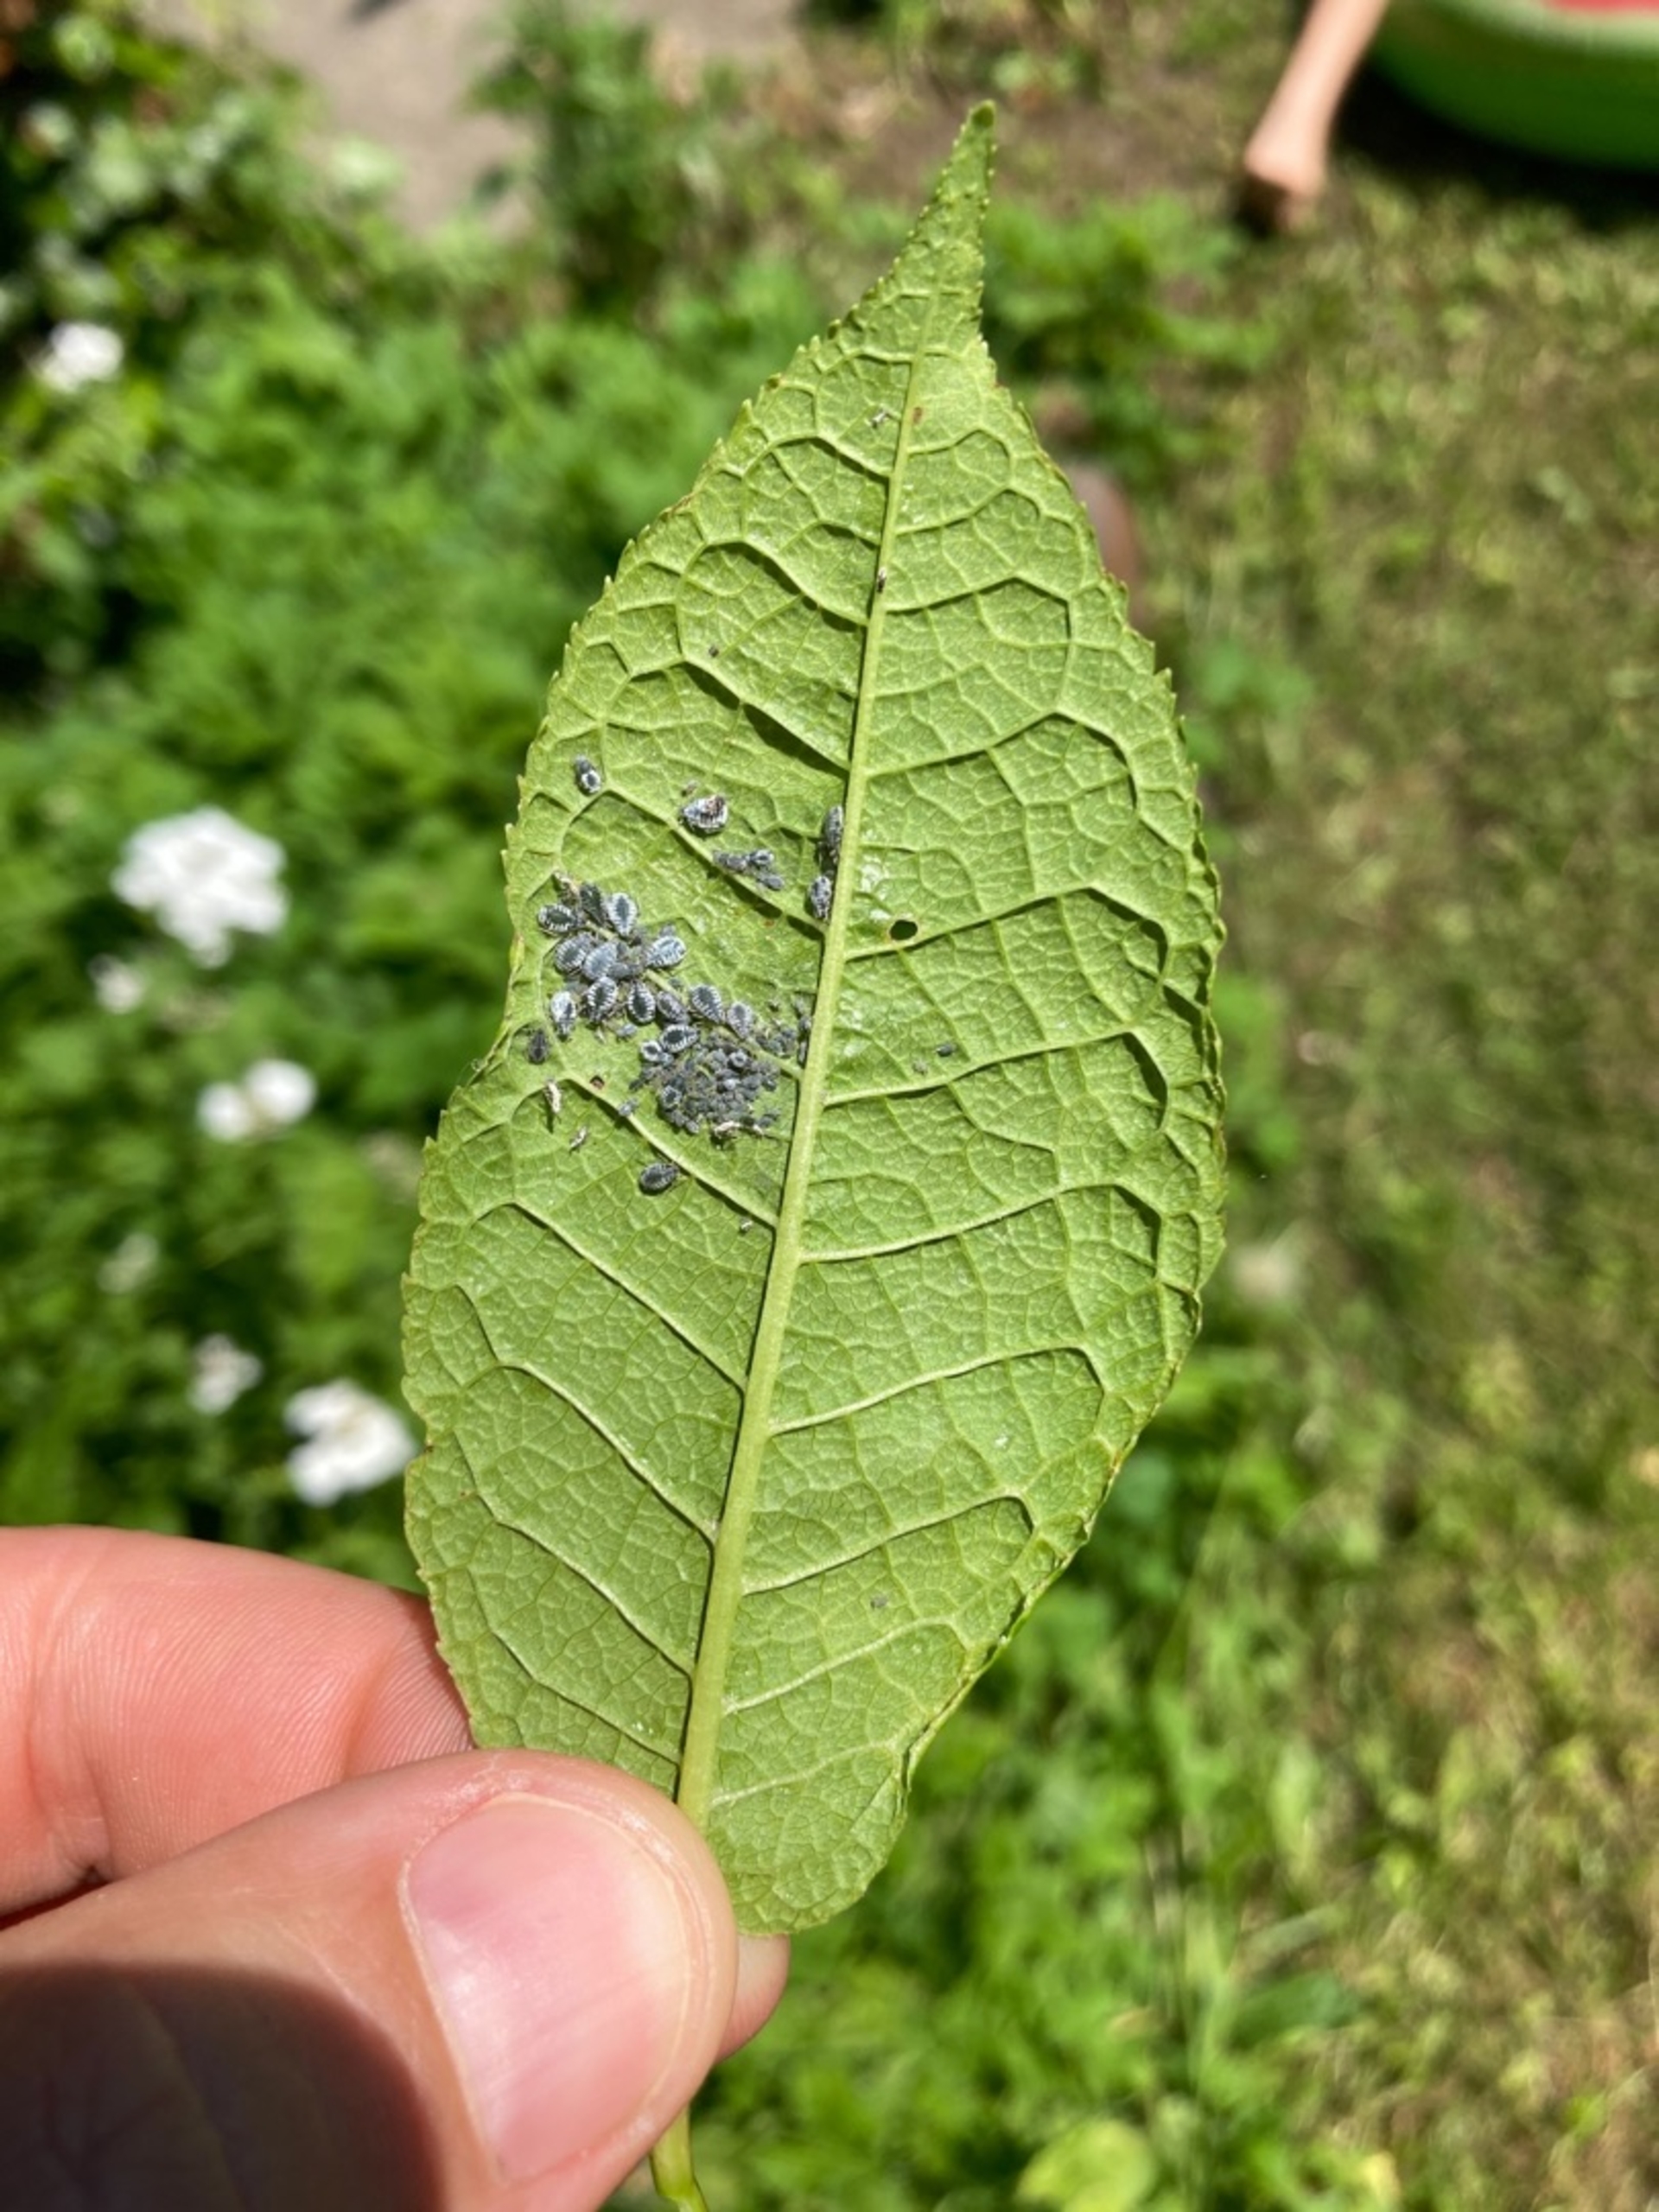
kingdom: Animalia
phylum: Arthropoda
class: Insecta
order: Hemiptera
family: Aphididae
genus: Rhopalosiphum
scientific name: Rhopalosiphum padi
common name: Havrebladlus
